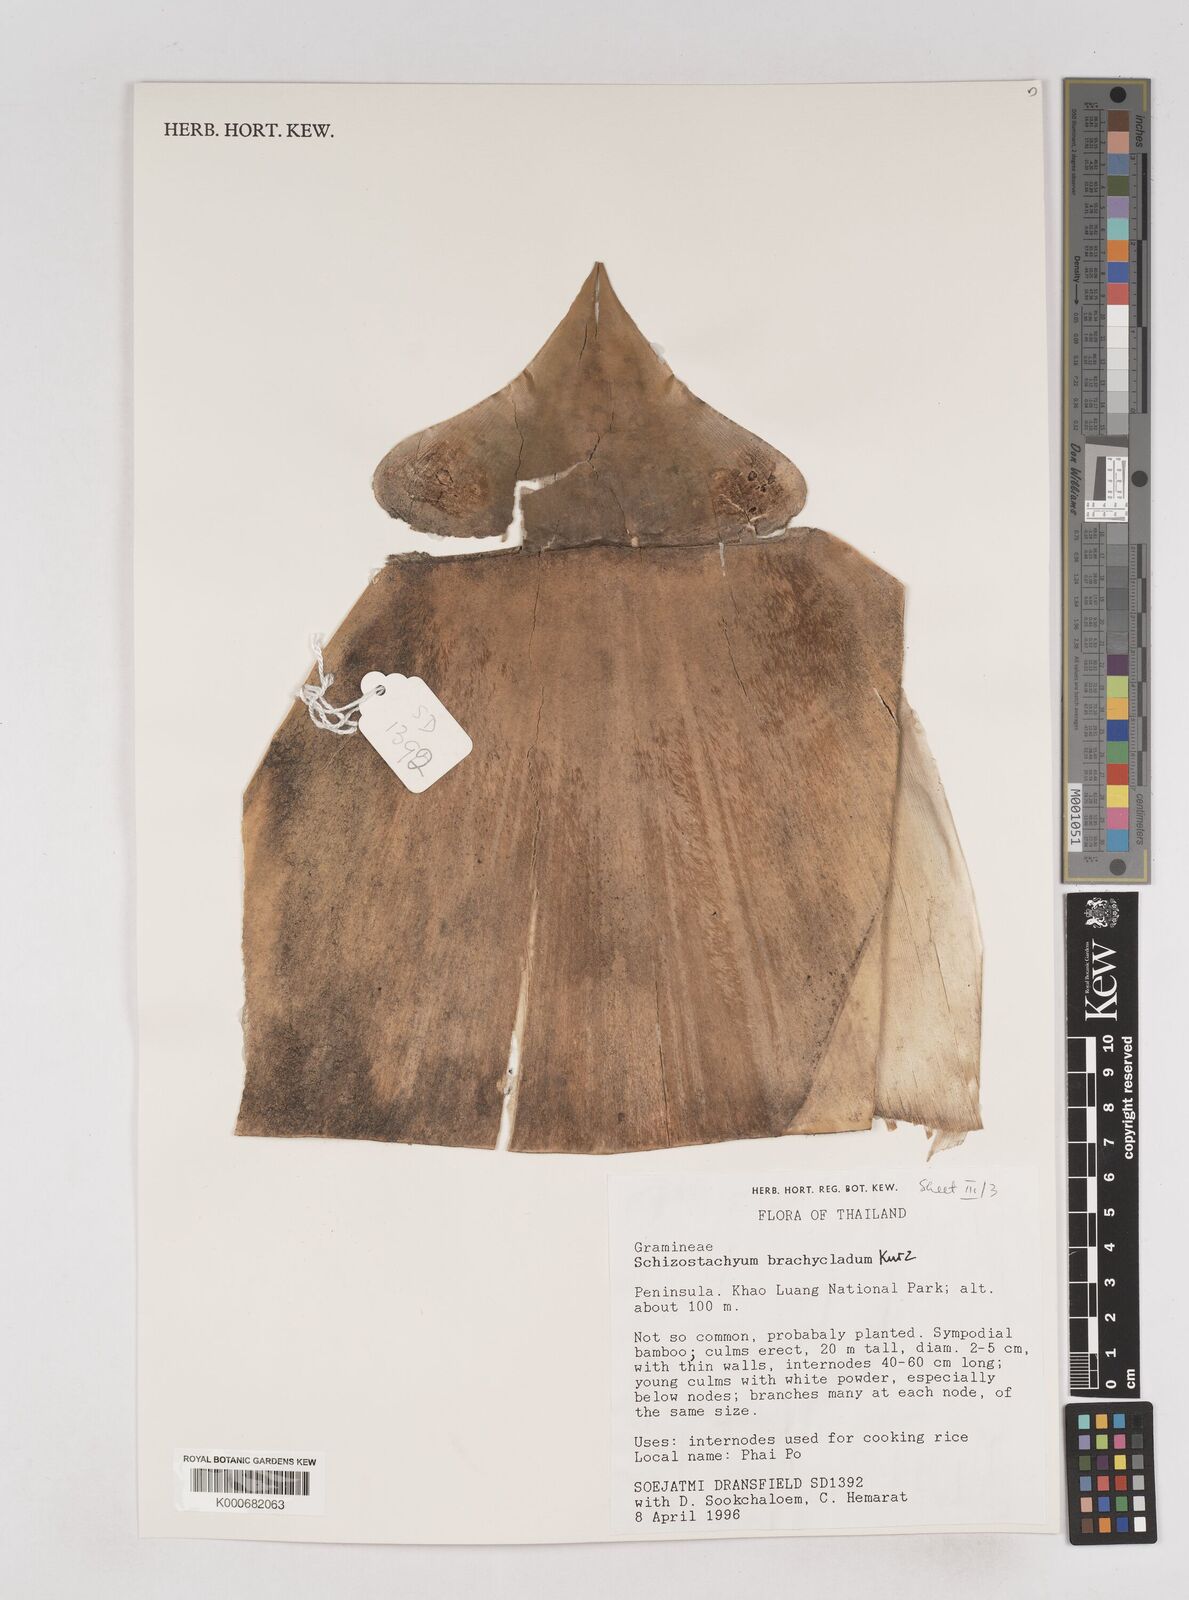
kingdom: Plantae
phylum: Tracheophyta
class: Liliopsida
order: Poales
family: Poaceae
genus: Schizostachyum
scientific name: Schizostachyum brachycladum
